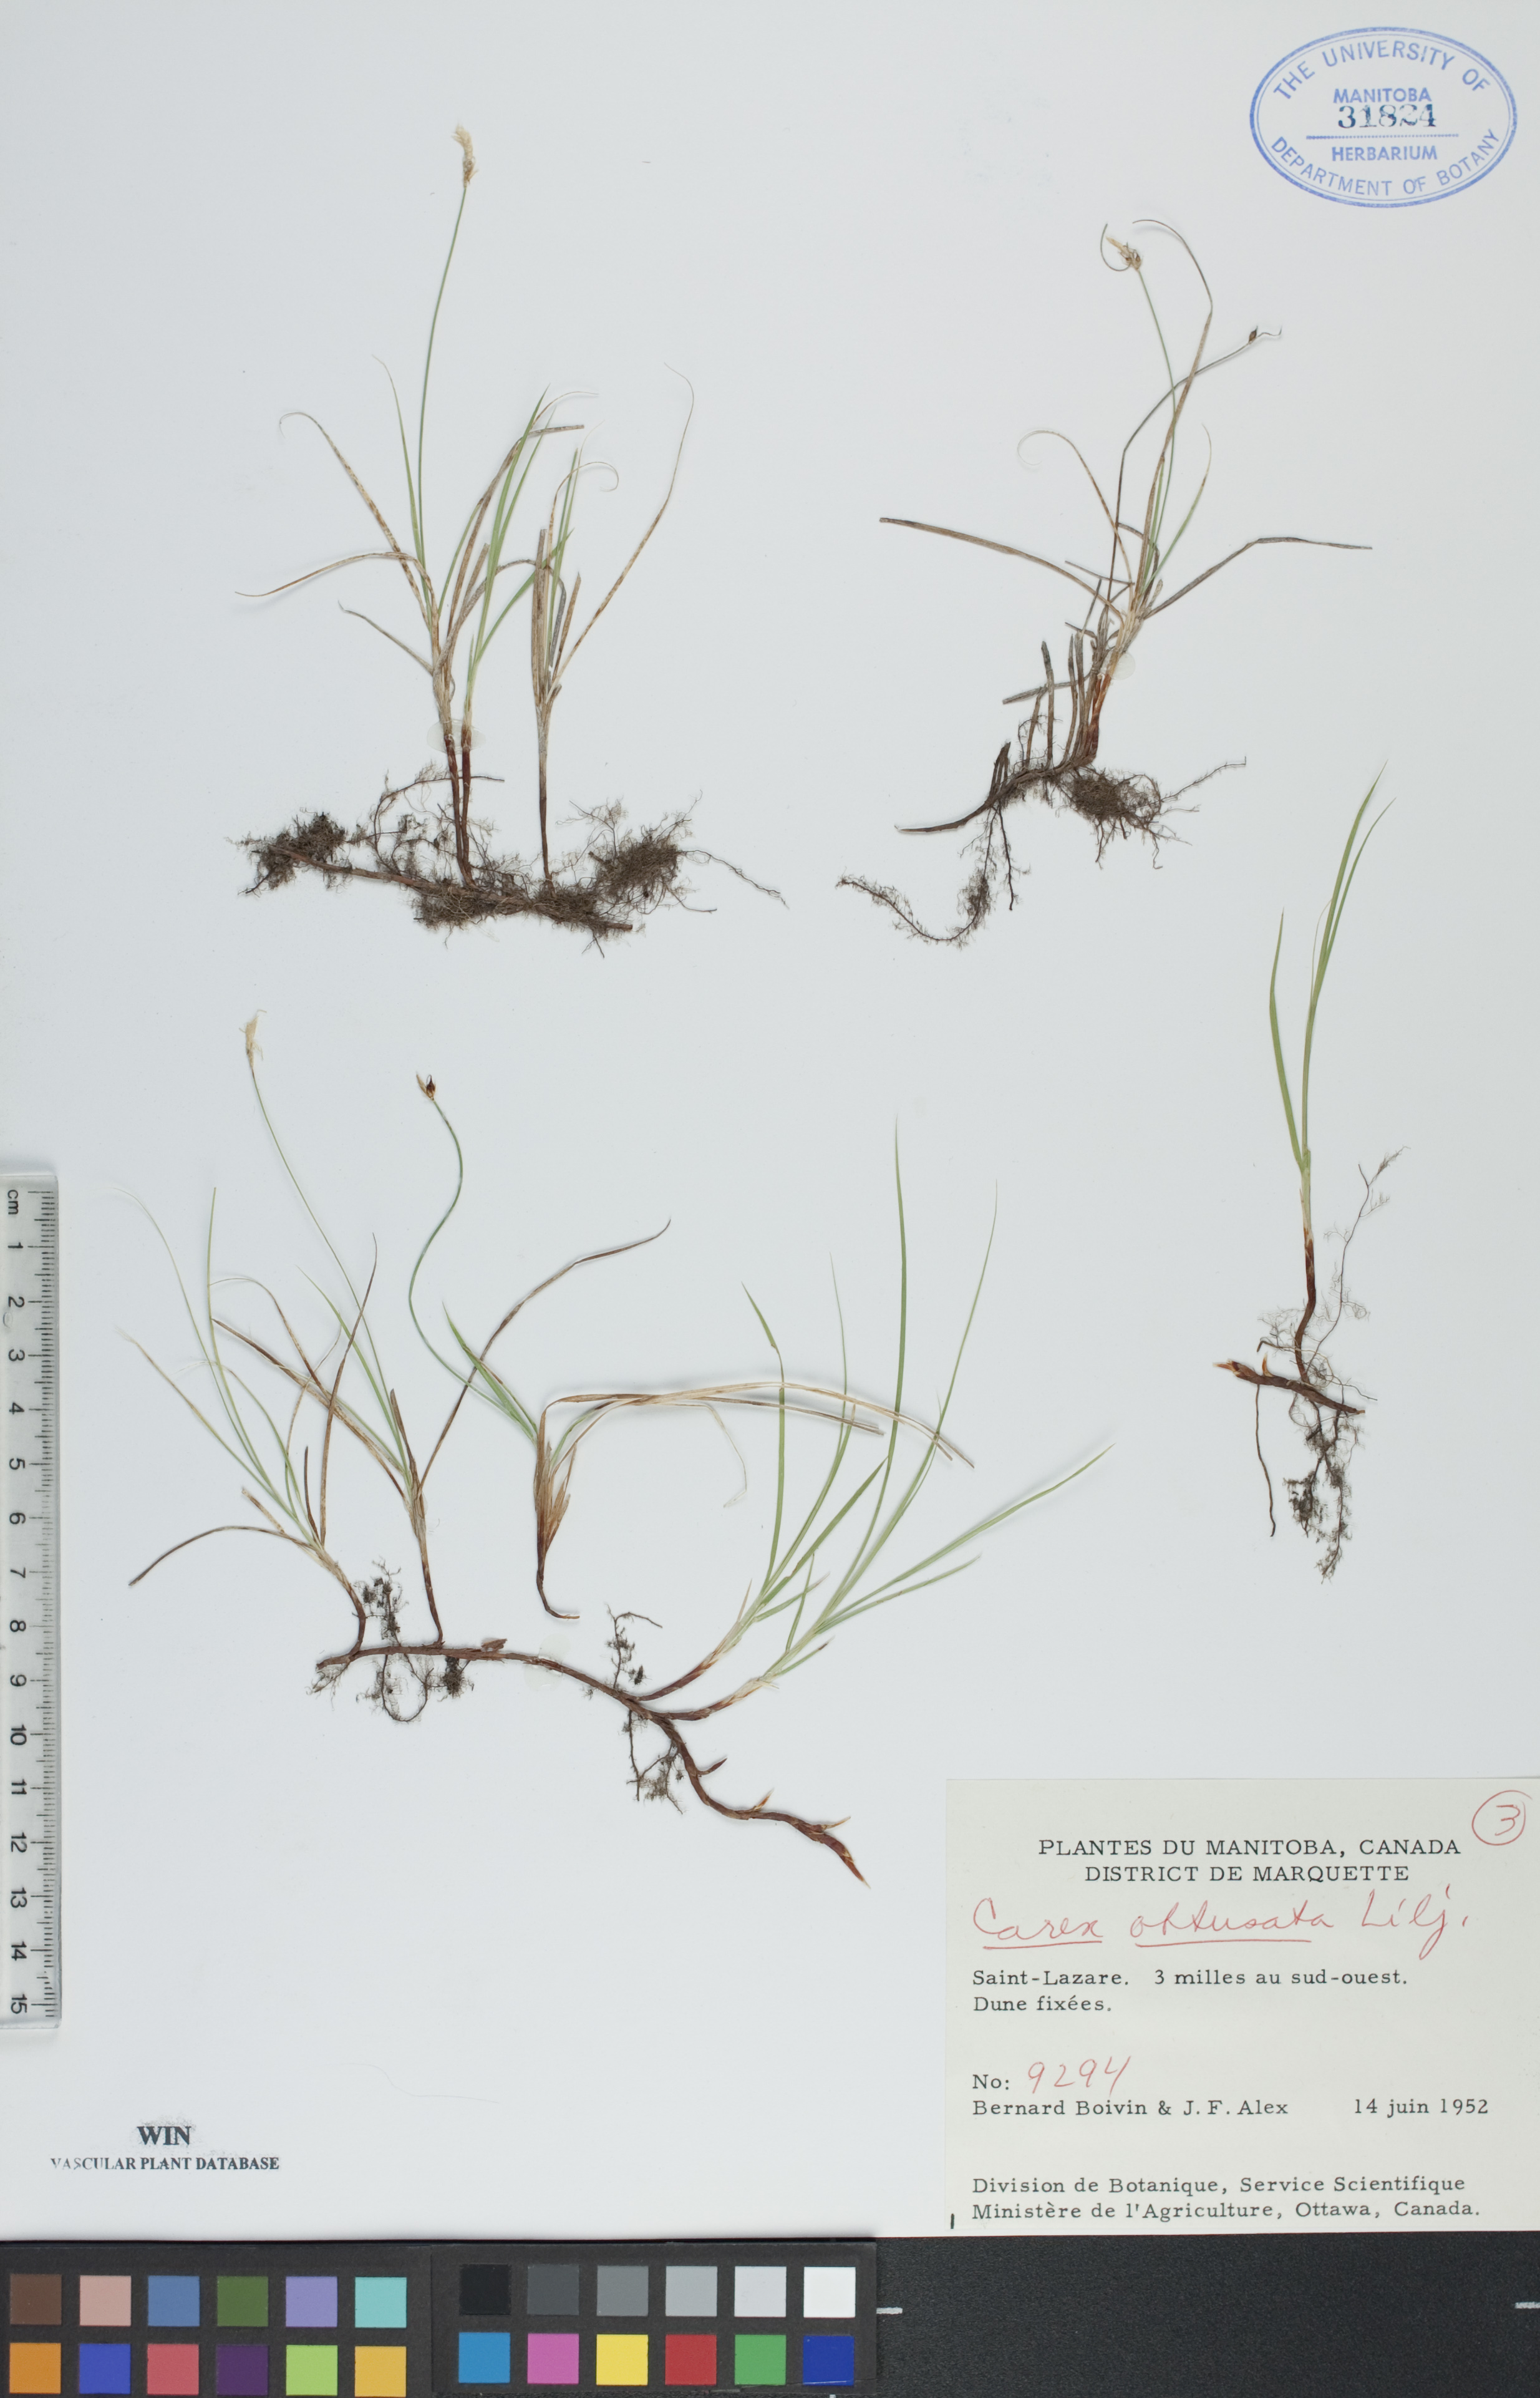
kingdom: Plantae
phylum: Tracheophyta
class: Liliopsida
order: Poales
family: Cyperaceae
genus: Carex
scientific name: Carex obtusata
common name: Blunt sedge
